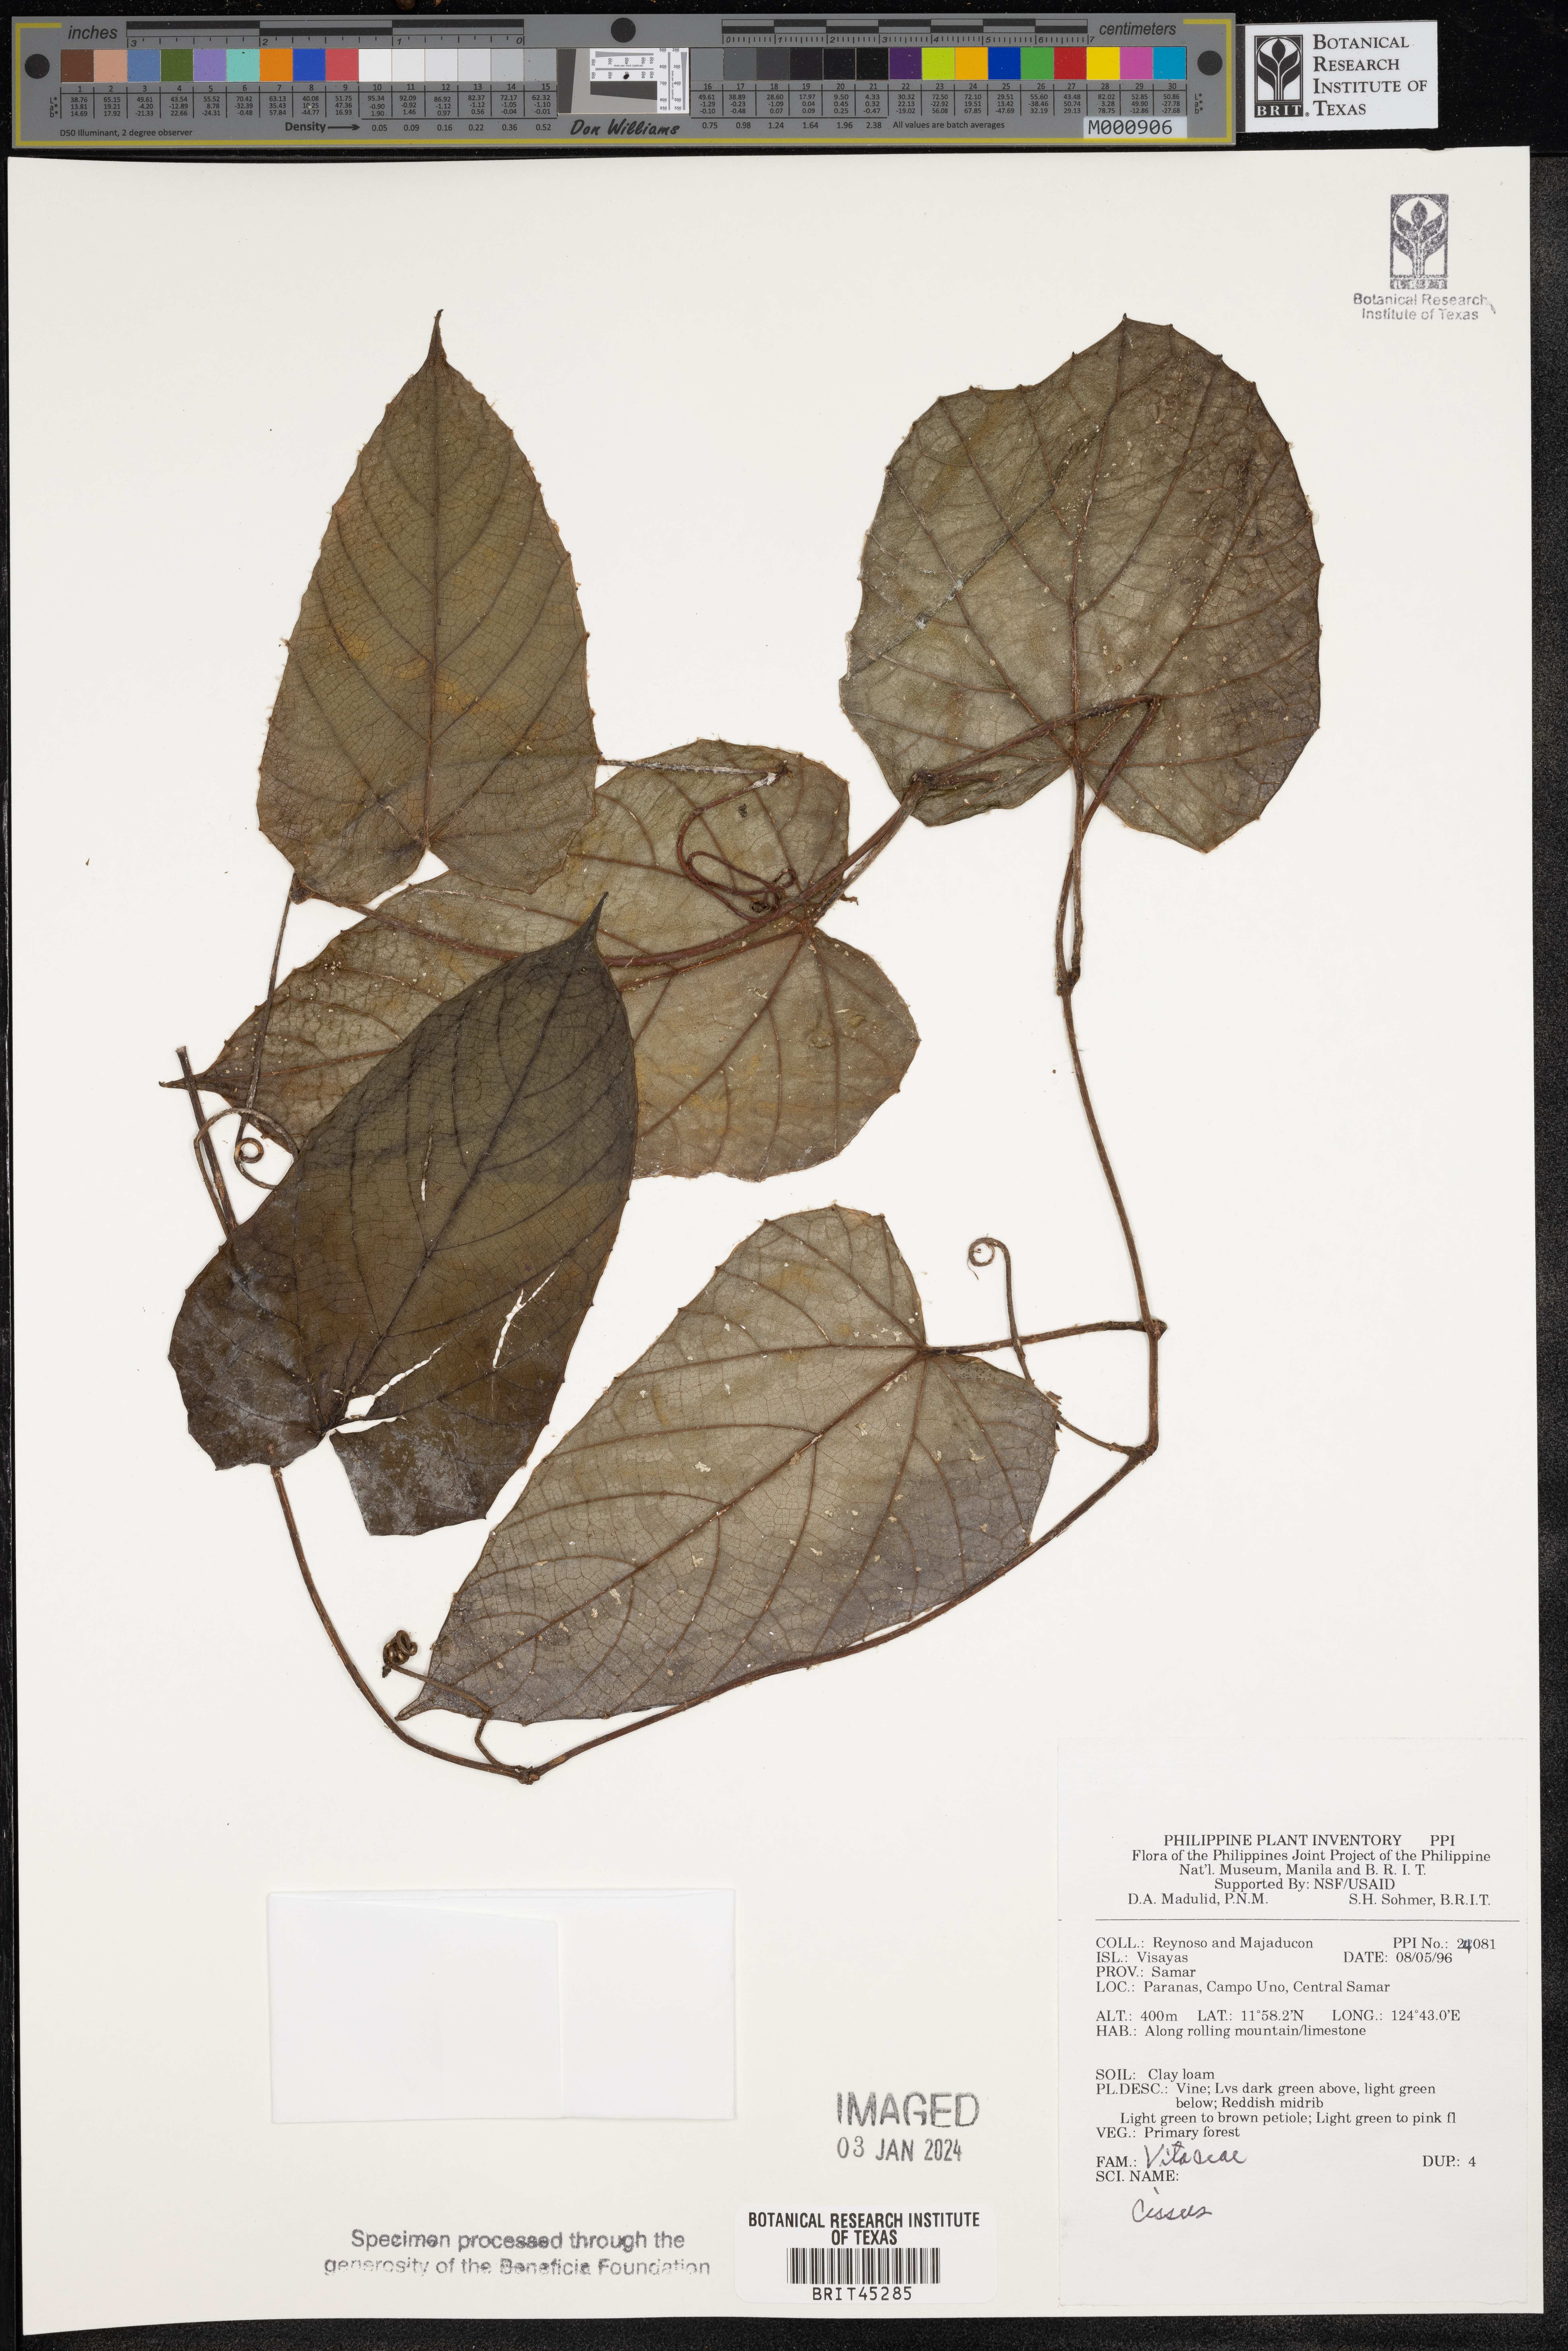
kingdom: Plantae
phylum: Tracheophyta
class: Magnoliopsida
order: Vitales
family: Vitaceae
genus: Cissus
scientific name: Cissus
